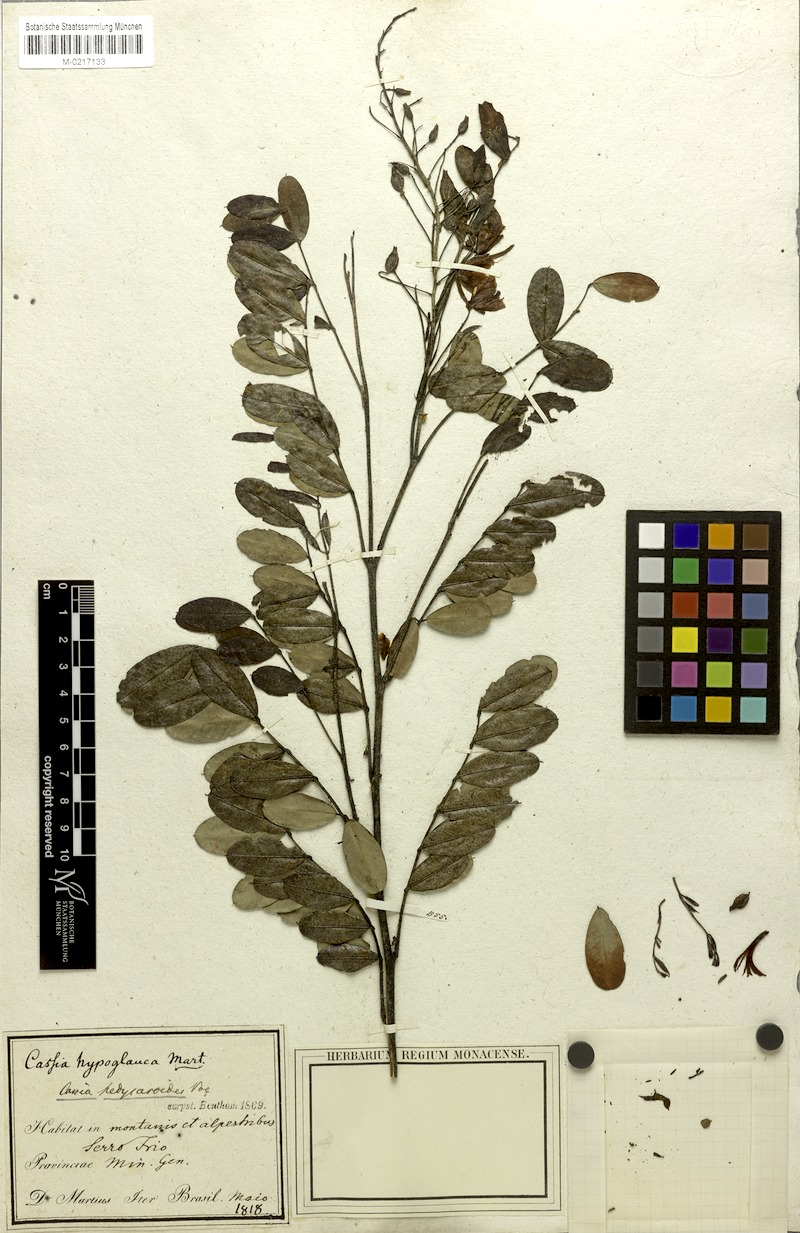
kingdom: Plantae
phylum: Tracheophyta
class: Magnoliopsida
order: Fabales
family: Fabaceae
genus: Chamaecrista
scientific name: Chamaecrista hedysaroides
